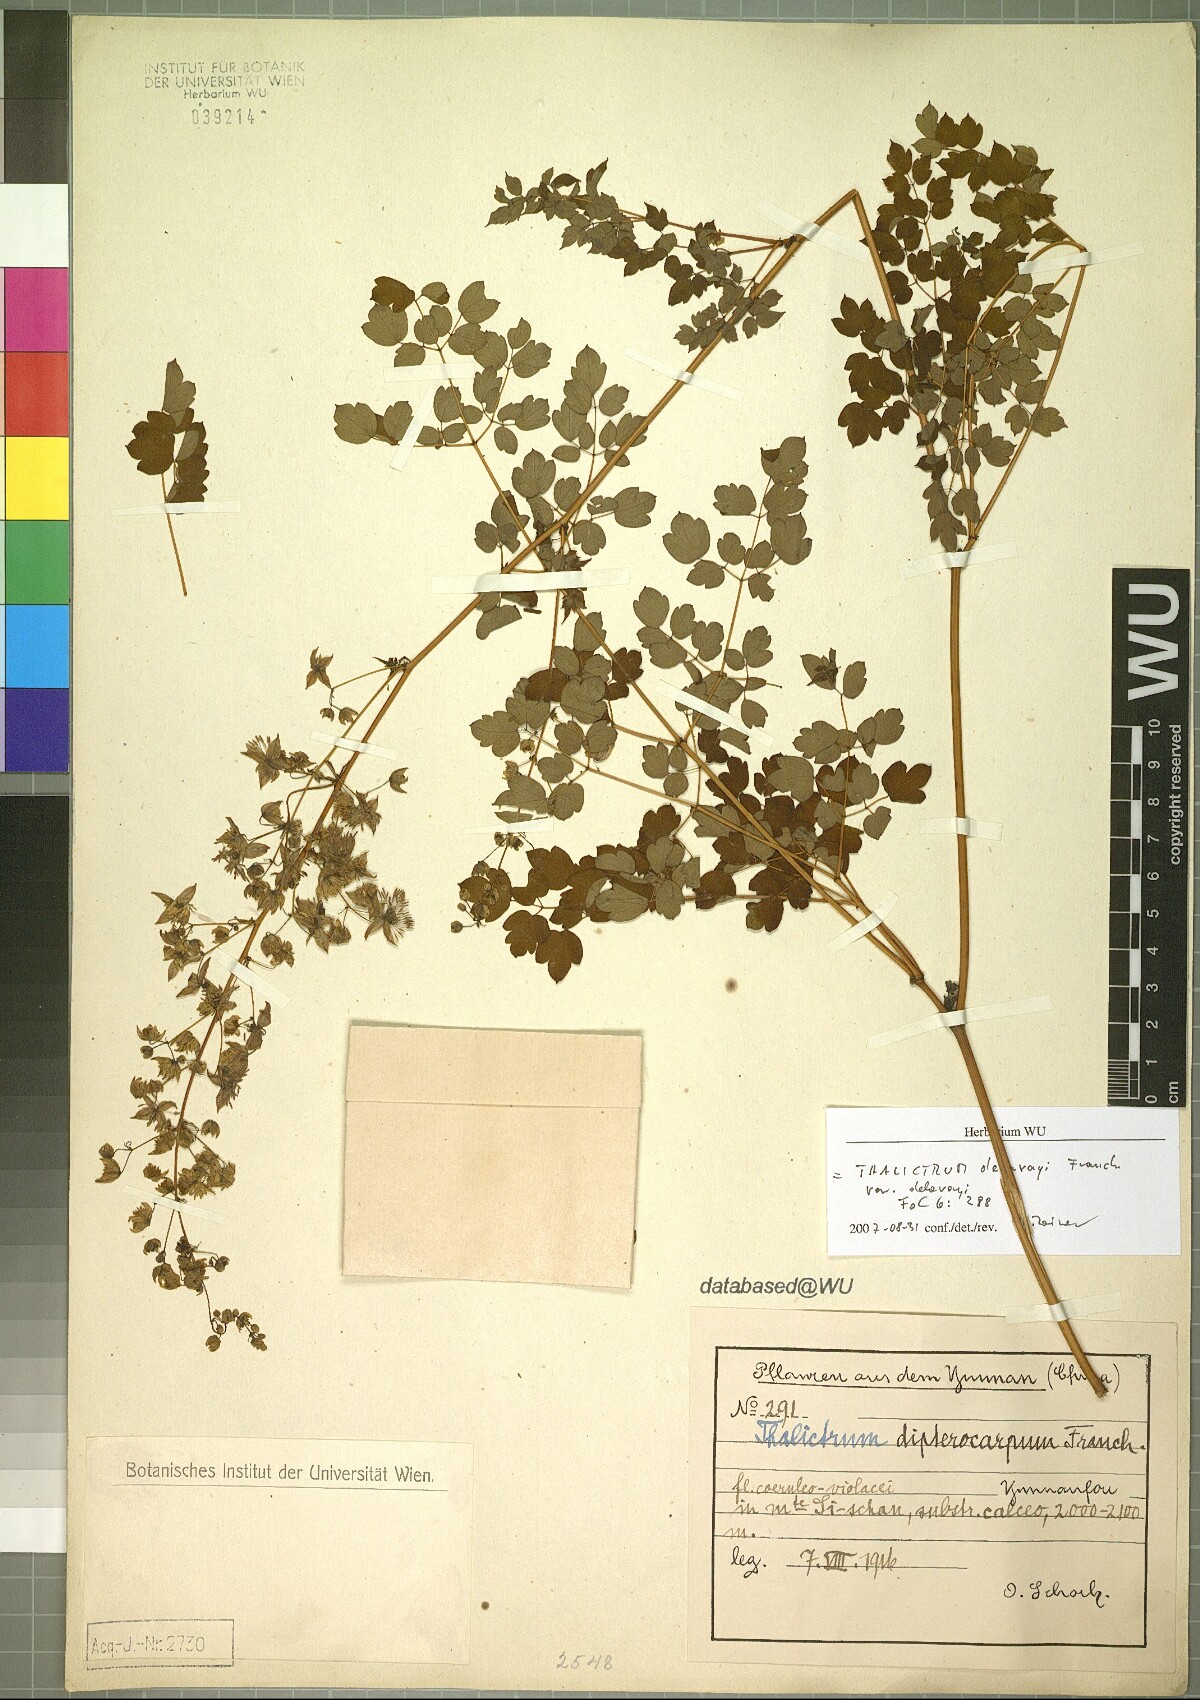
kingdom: Plantae
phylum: Tracheophyta
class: Magnoliopsida
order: Ranunculales
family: Ranunculaceae
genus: Thalictrum
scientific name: Thalictrum delavayi
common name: Chinese meadow-rue
